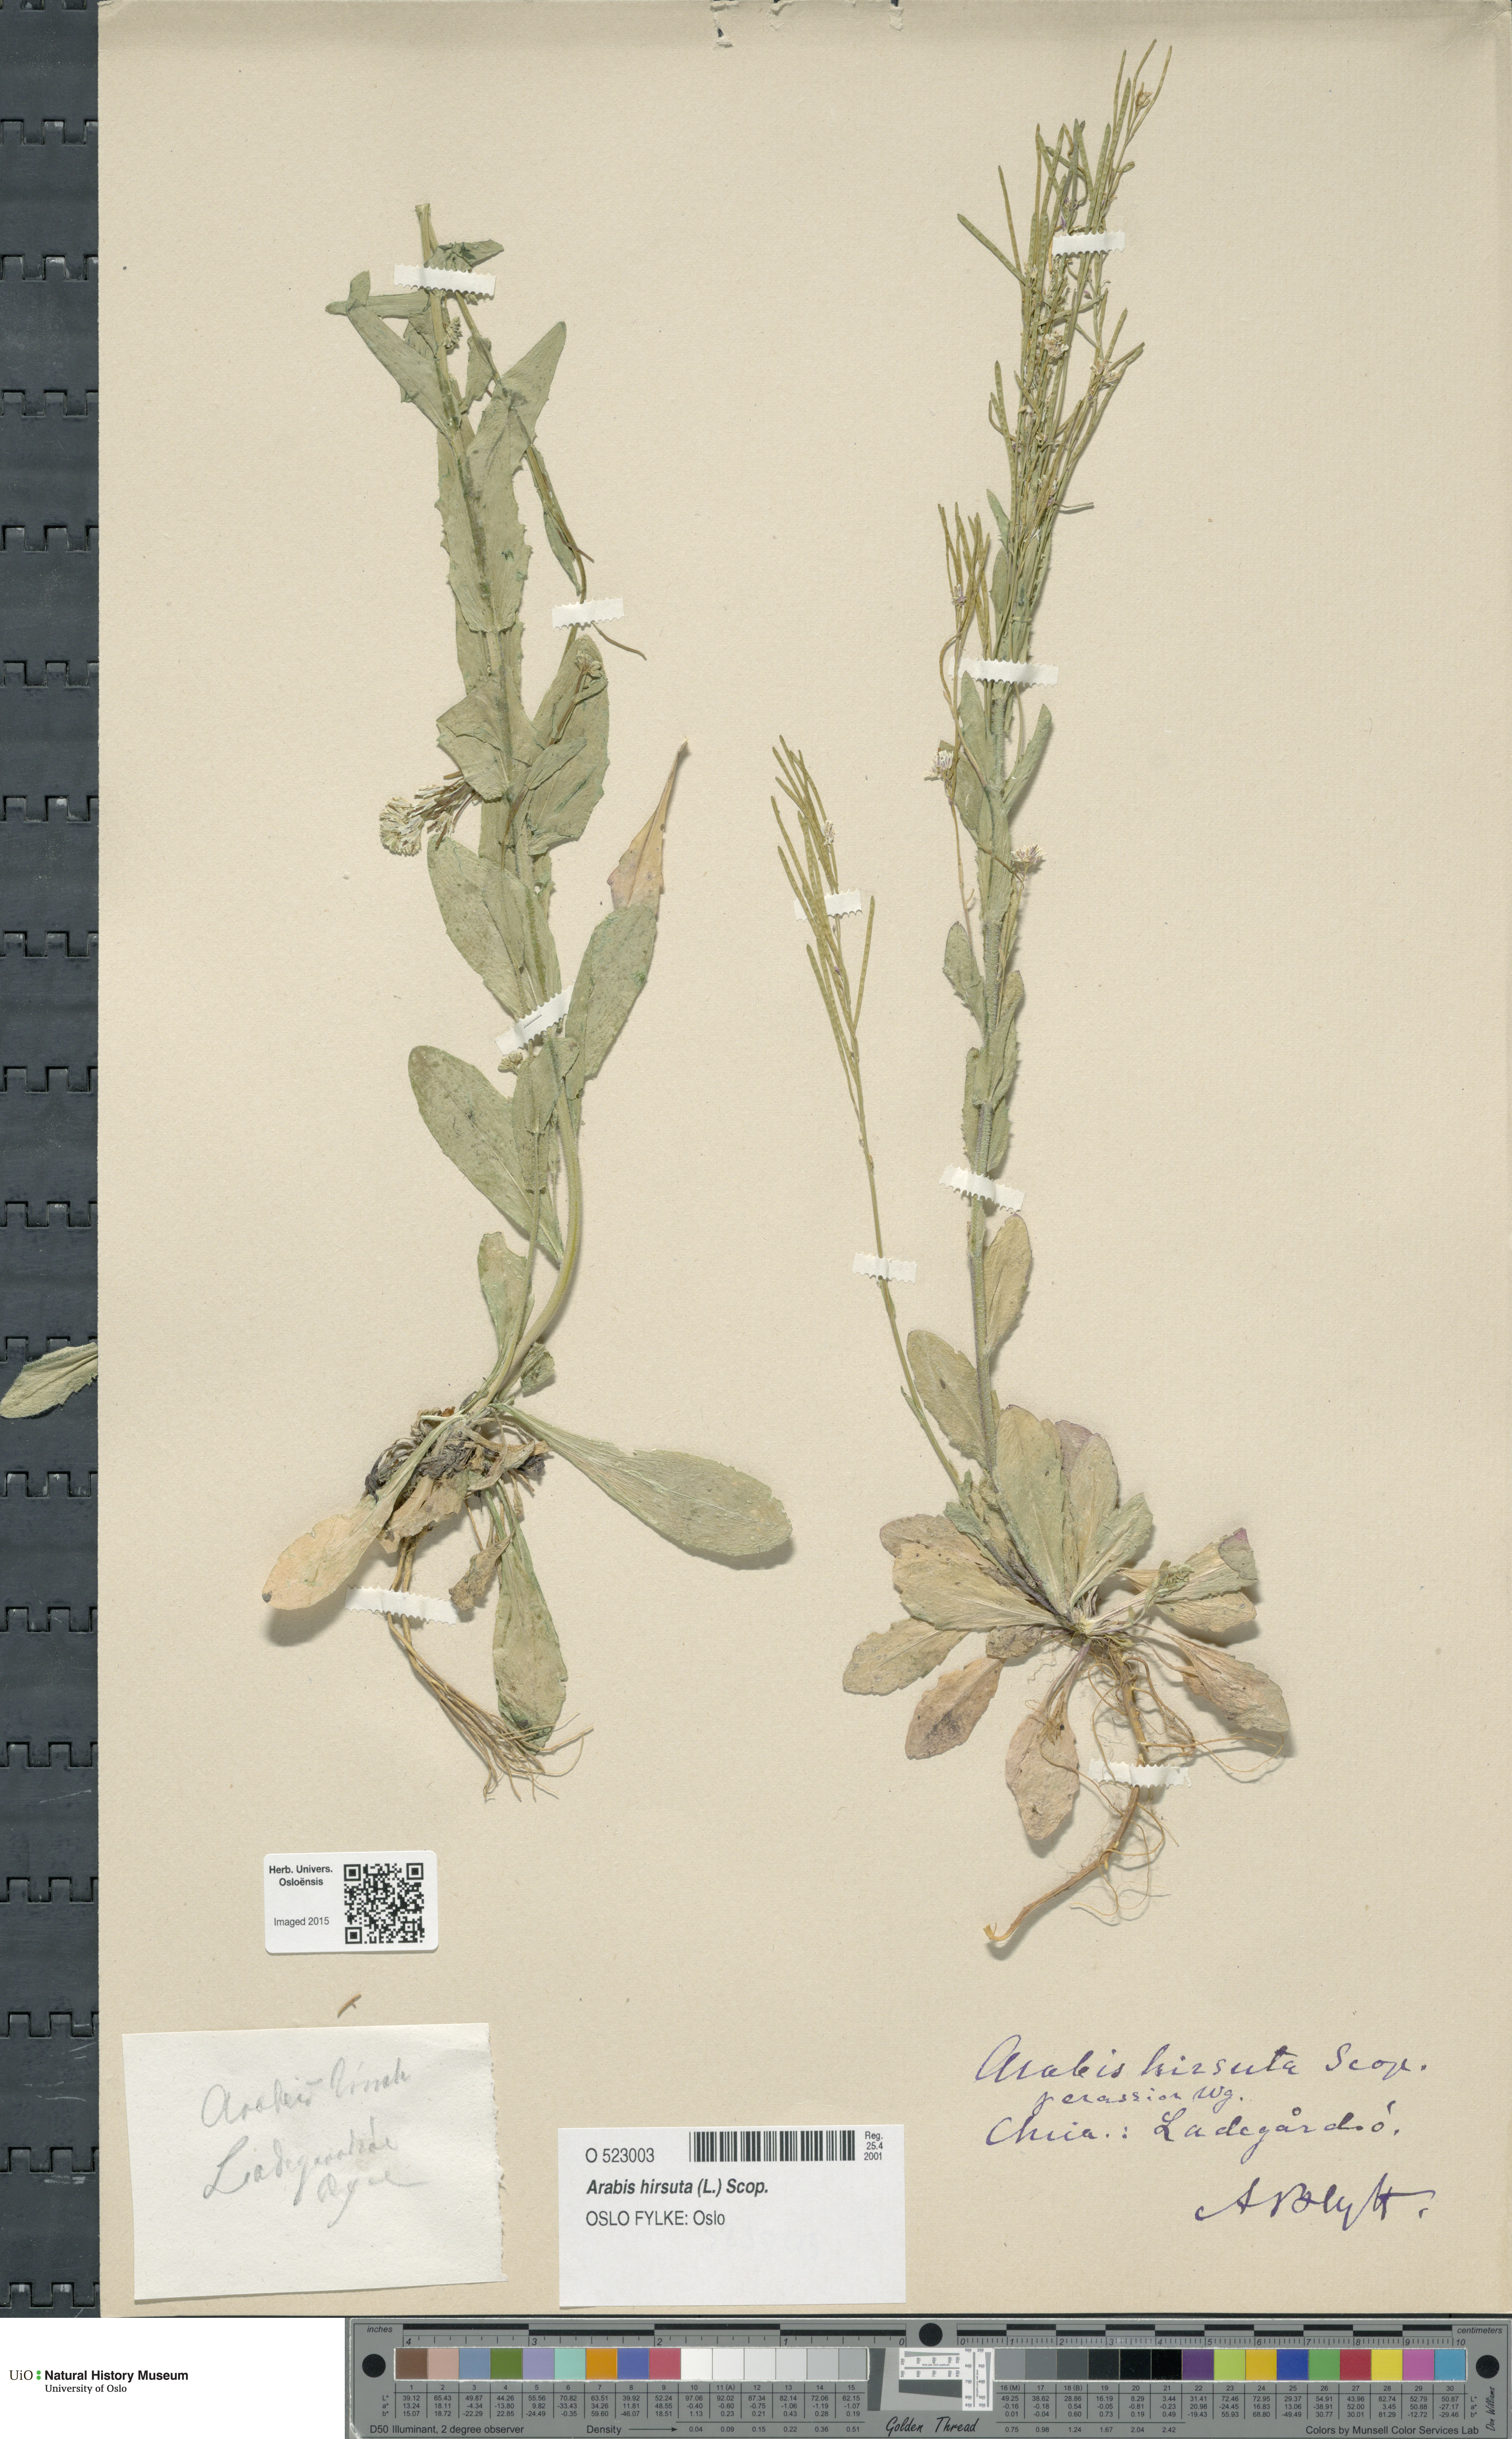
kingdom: Plantae
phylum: Tracheophyta
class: Magnoliopsida
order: Brassicales
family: Brassicaceae
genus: Arabis
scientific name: Arabis hirsuta
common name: Hairy rock-cress
